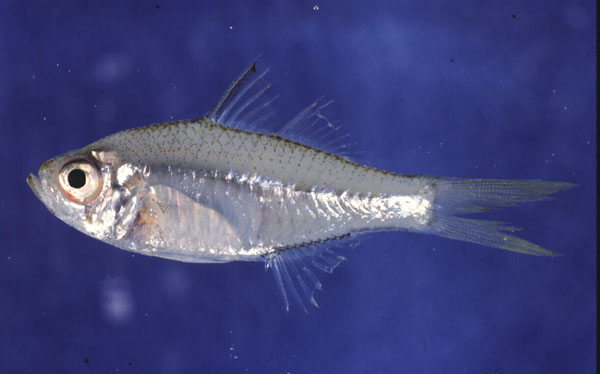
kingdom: Animalia
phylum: Chordata
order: Perciformes
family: Ambassidae
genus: Ambassis
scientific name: Ambassis dussumieri
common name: Malabar glassy perchlet
